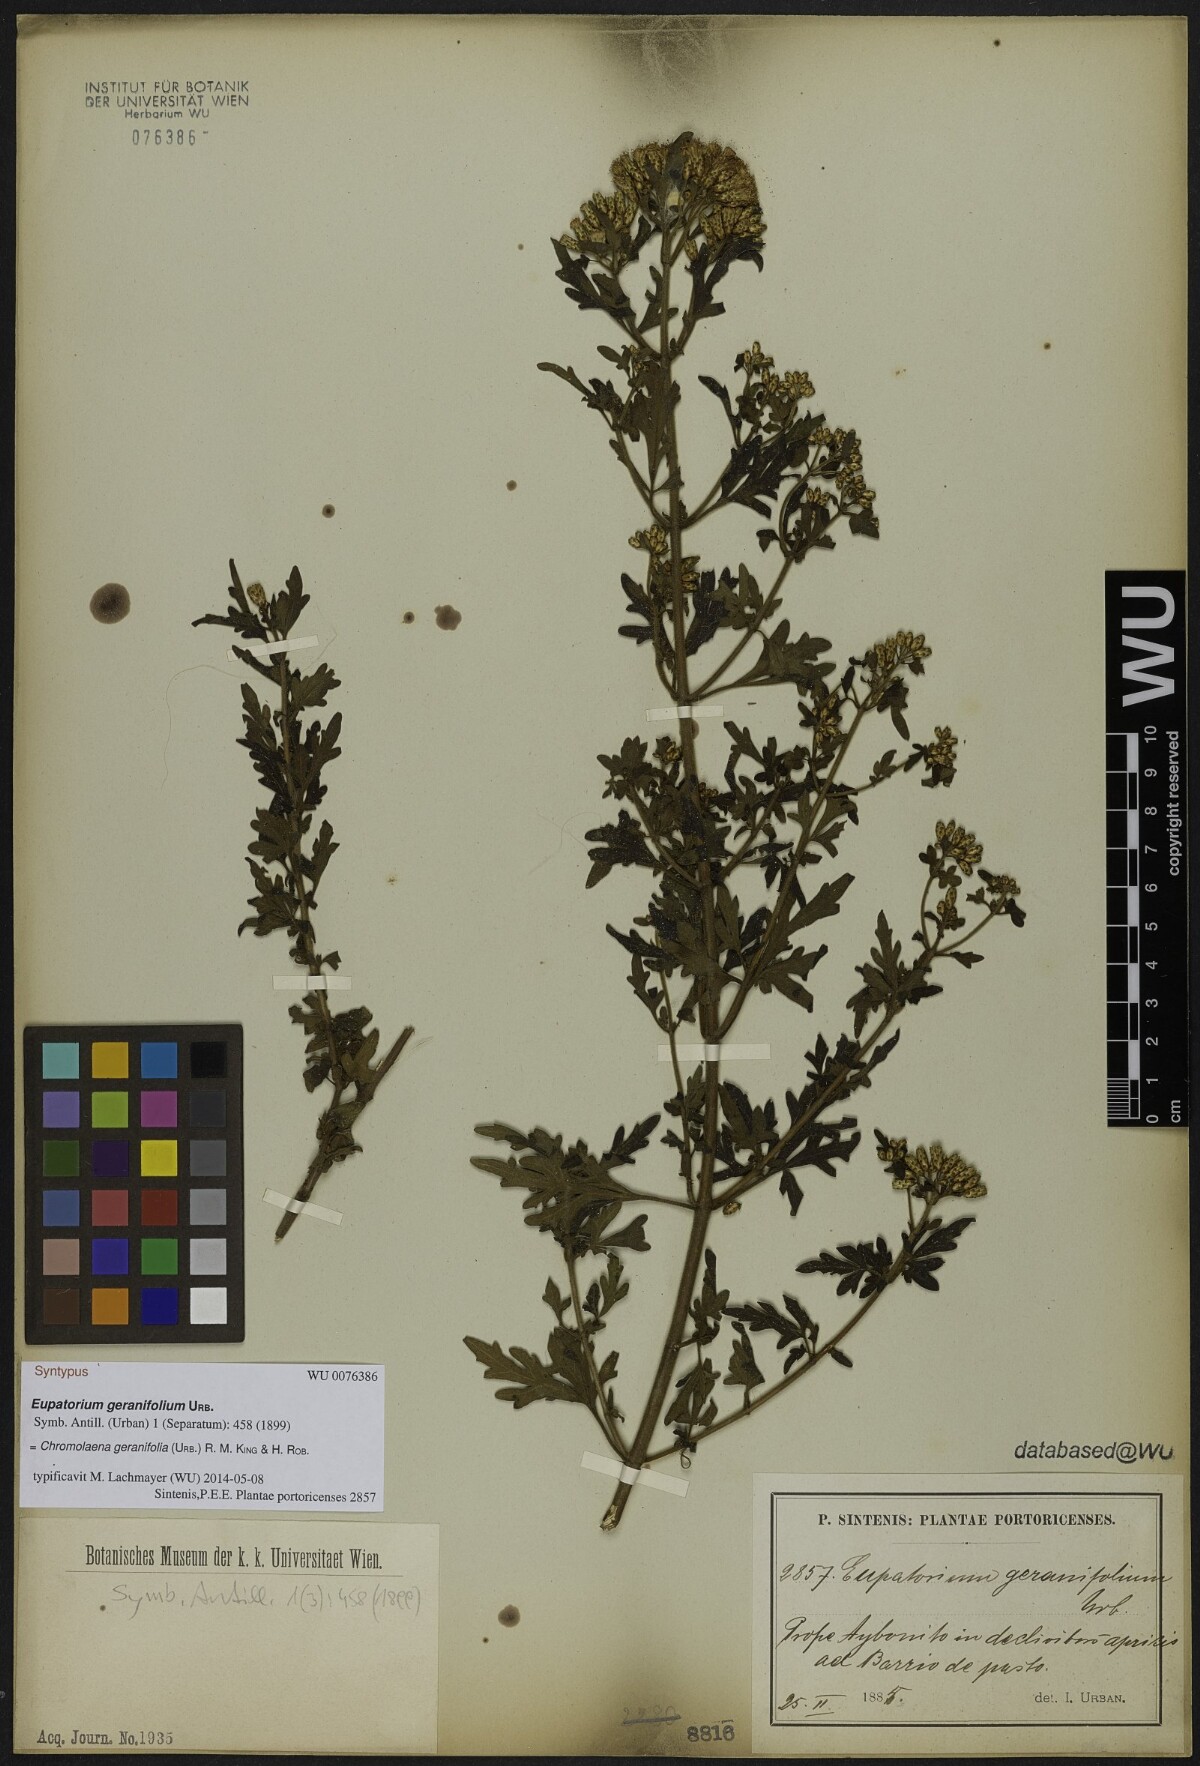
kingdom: Plantae
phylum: Tracheophyta
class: Magnoliopsida
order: Asterales
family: Asteraceae
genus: Chromolaena
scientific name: Chromolaena geranifolia
